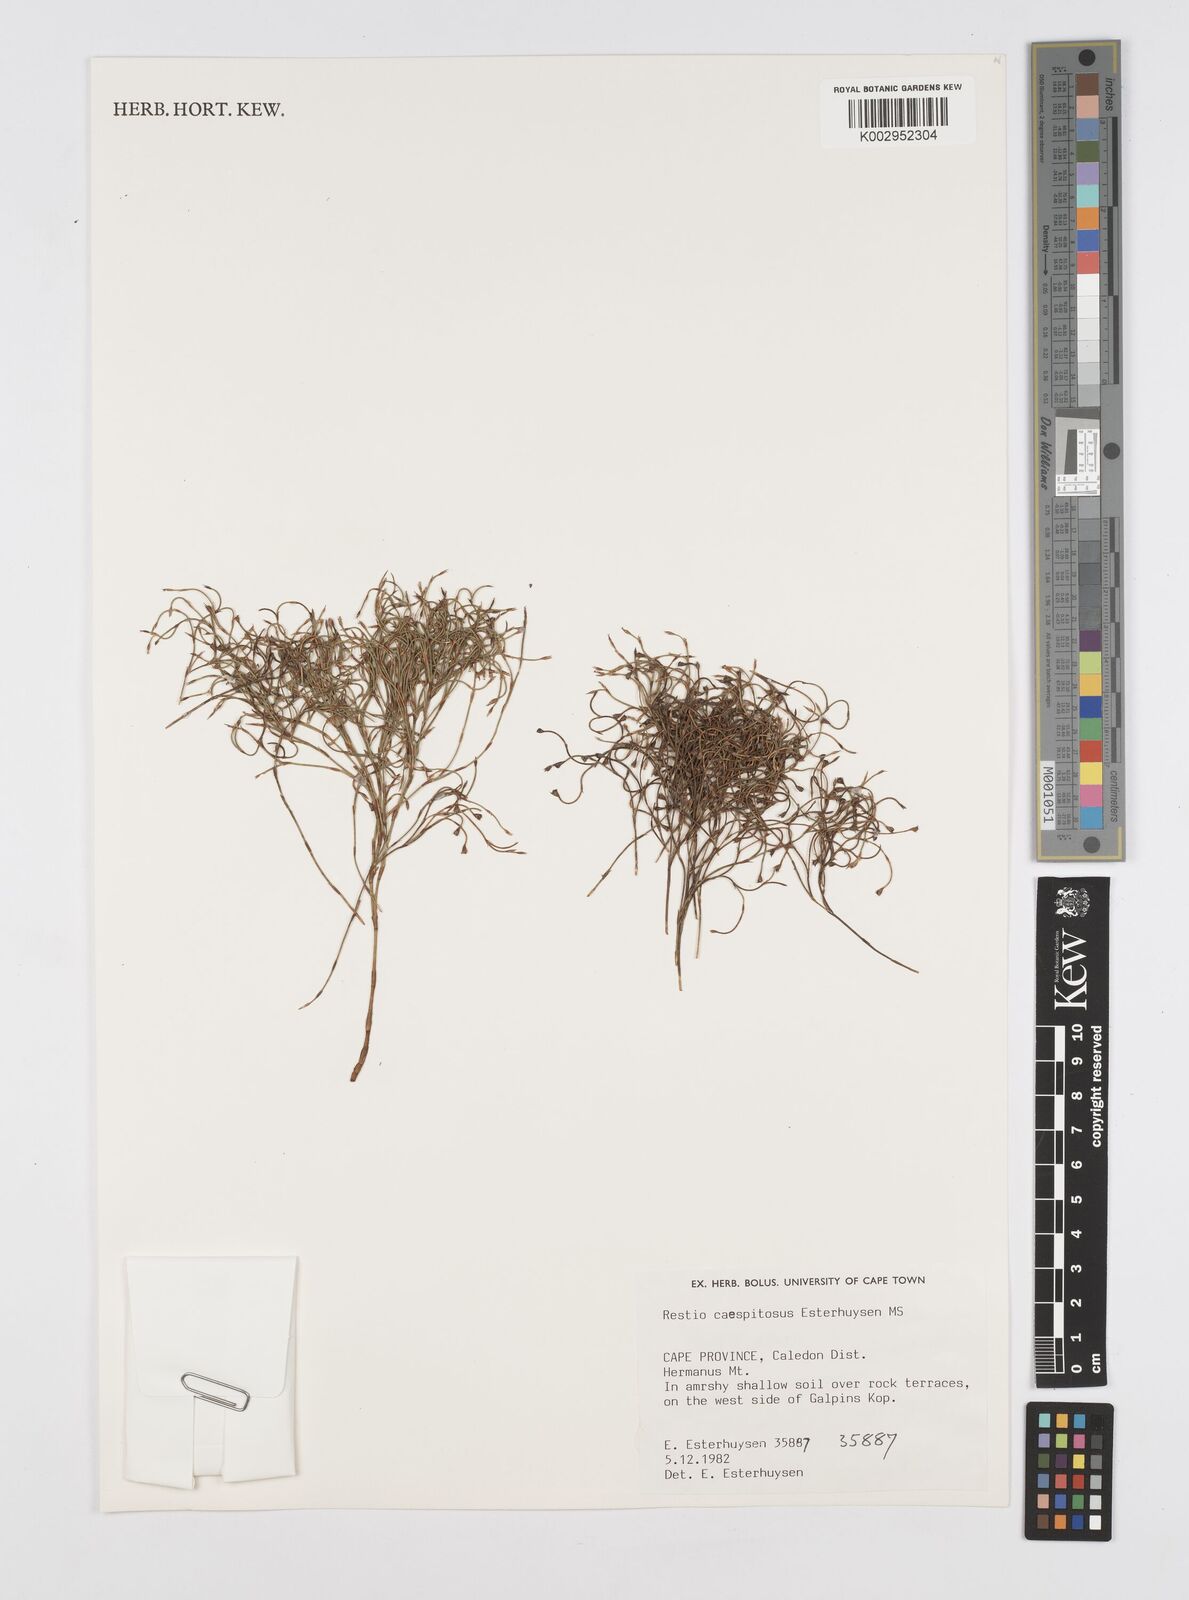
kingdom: Plantae
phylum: Tracheophyta
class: Liliopsida
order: Poales
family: Restionaceae
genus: Restio
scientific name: Restio caespitosus
